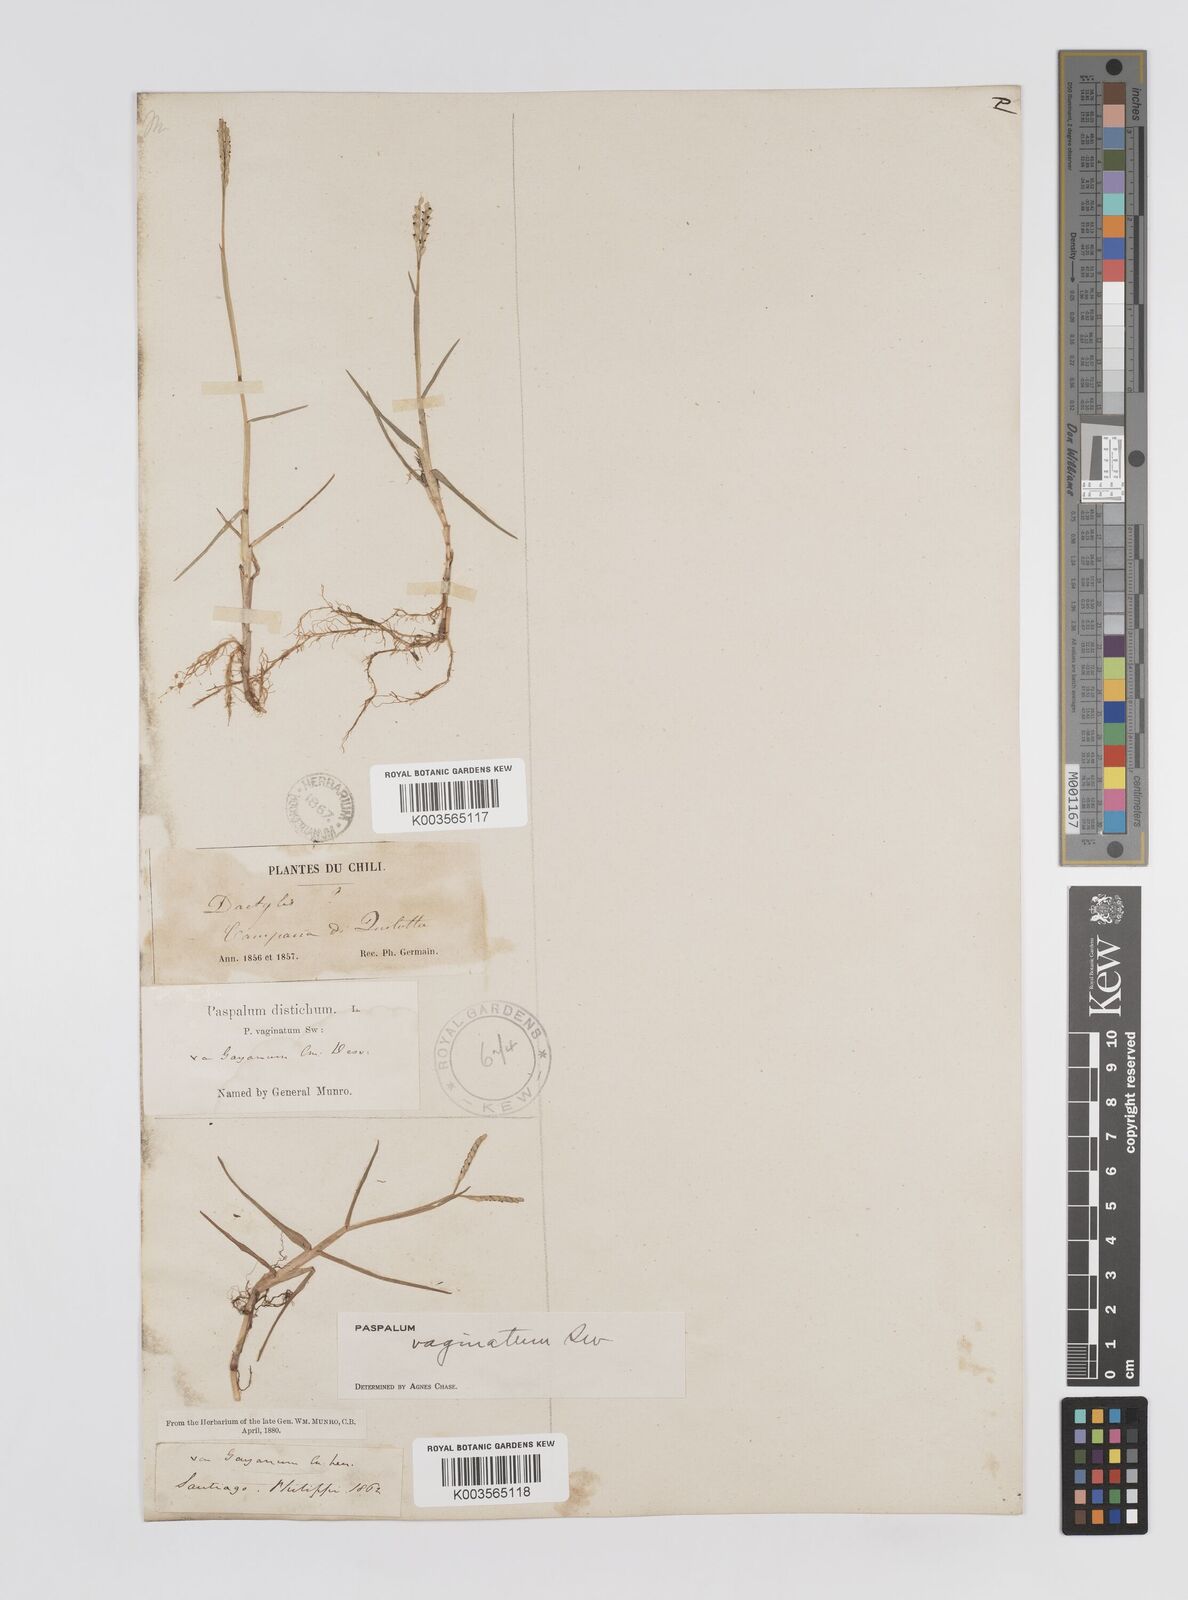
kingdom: Plantae
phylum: Tracheophyta
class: Liliopsida
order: Poales
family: Poaceae
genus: Paspalum
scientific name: Paspalum vaginatum
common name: Seashore paspalum
